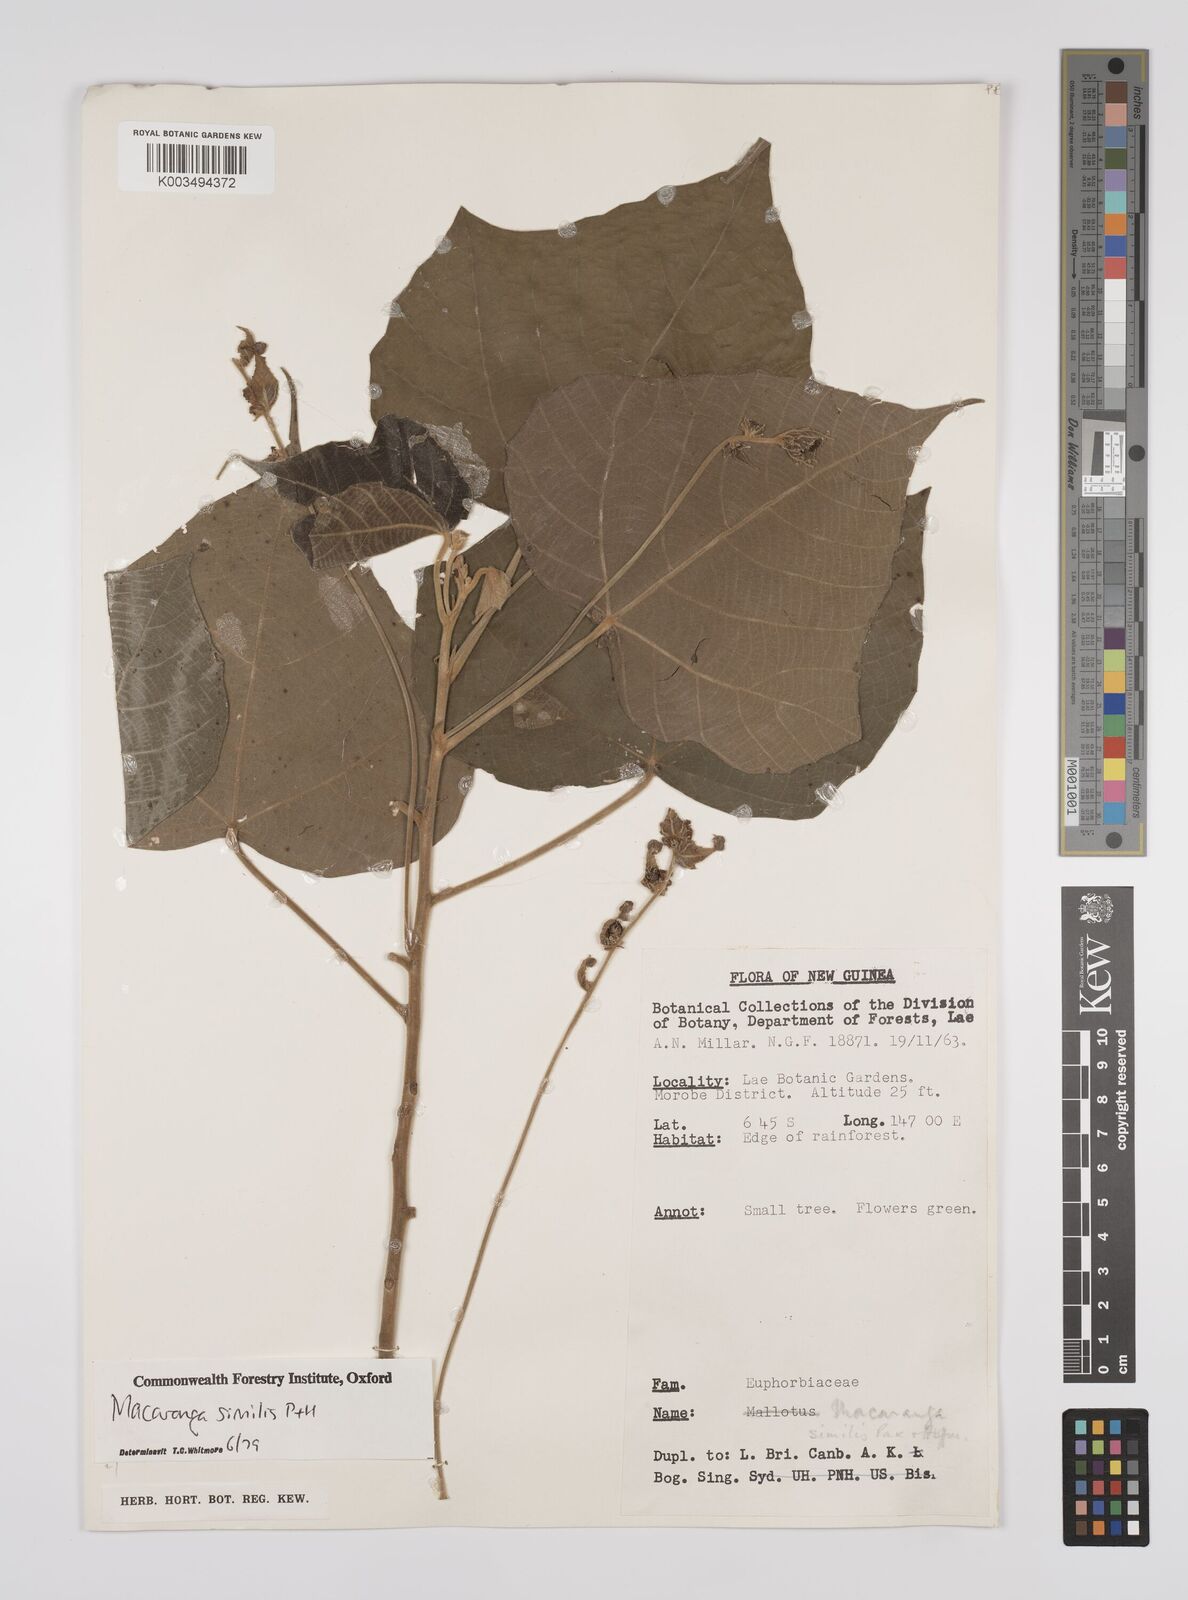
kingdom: Plantae
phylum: Tracheophyta
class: Magnoliopsida
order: Malpighiales
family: Euphorbiaceae
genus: Macaranga
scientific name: Macaranga similis
